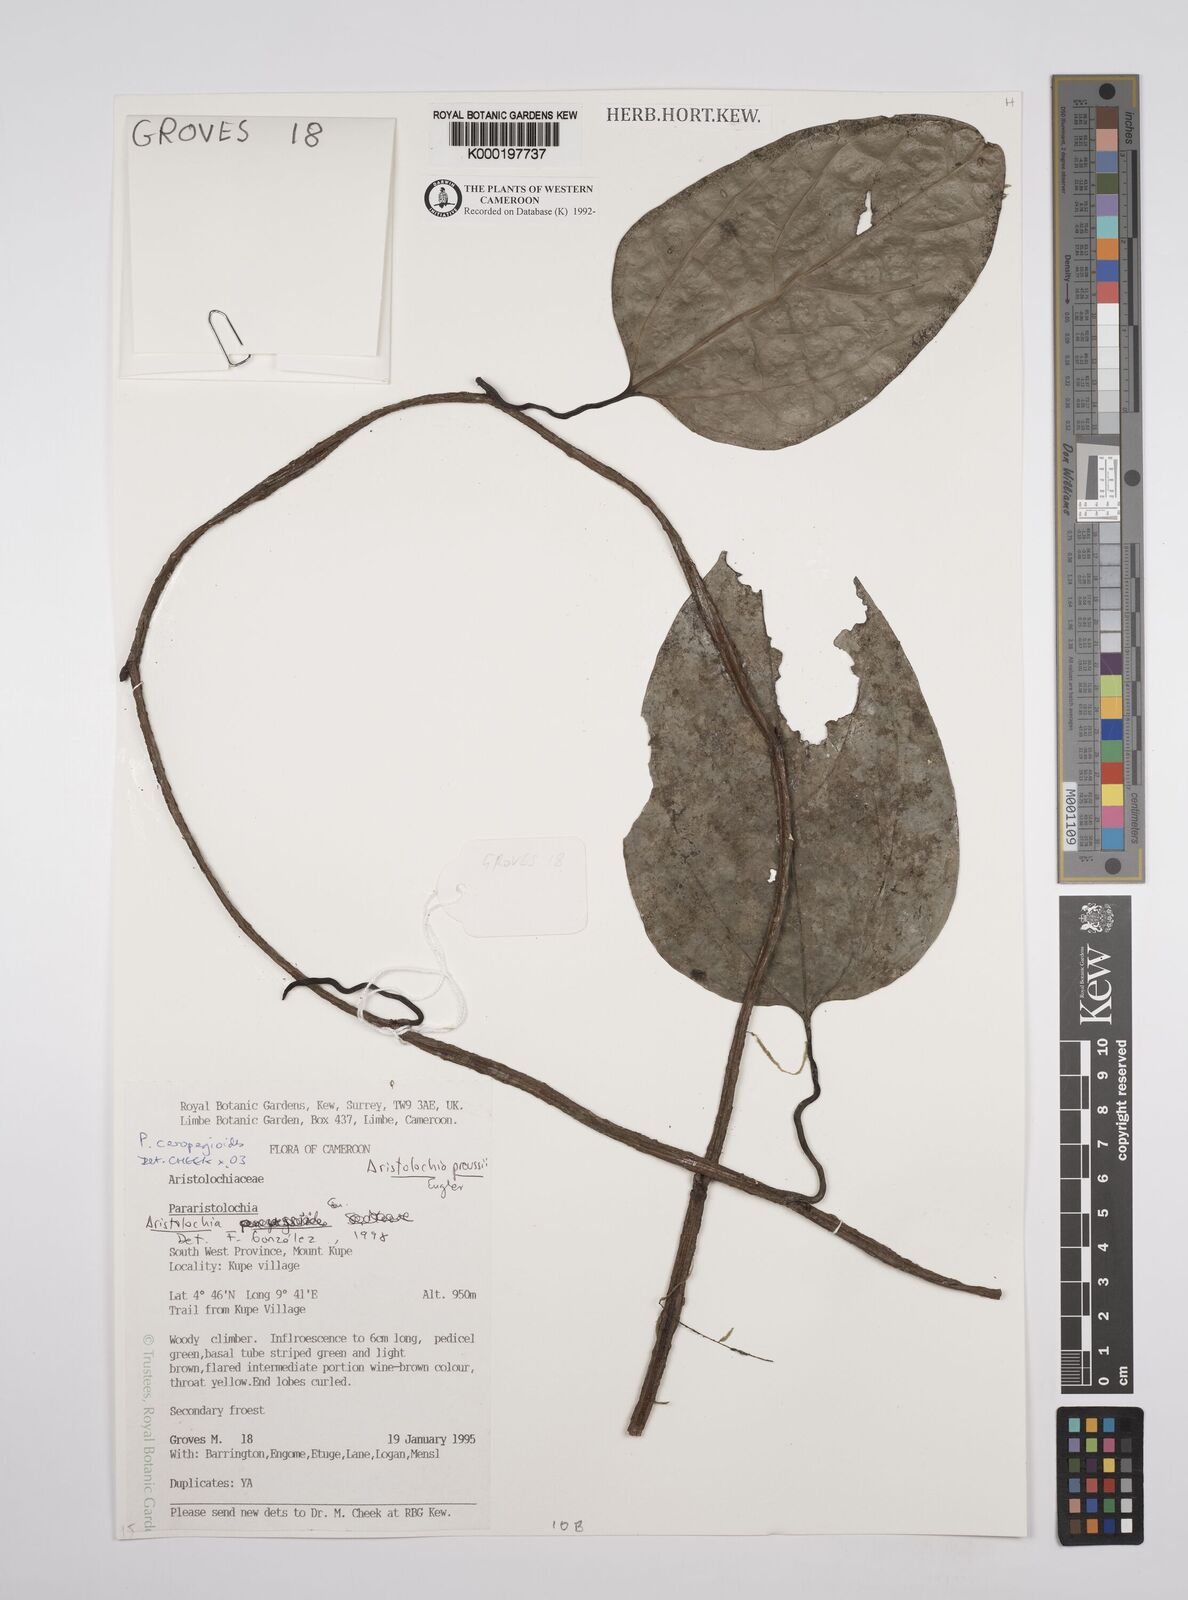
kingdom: Plantae
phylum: Tracheophyta
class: Magnoliopsida
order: Piperales
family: Aristolochiaceae
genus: Aristolochia
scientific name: Aristolochia ceropegioides
